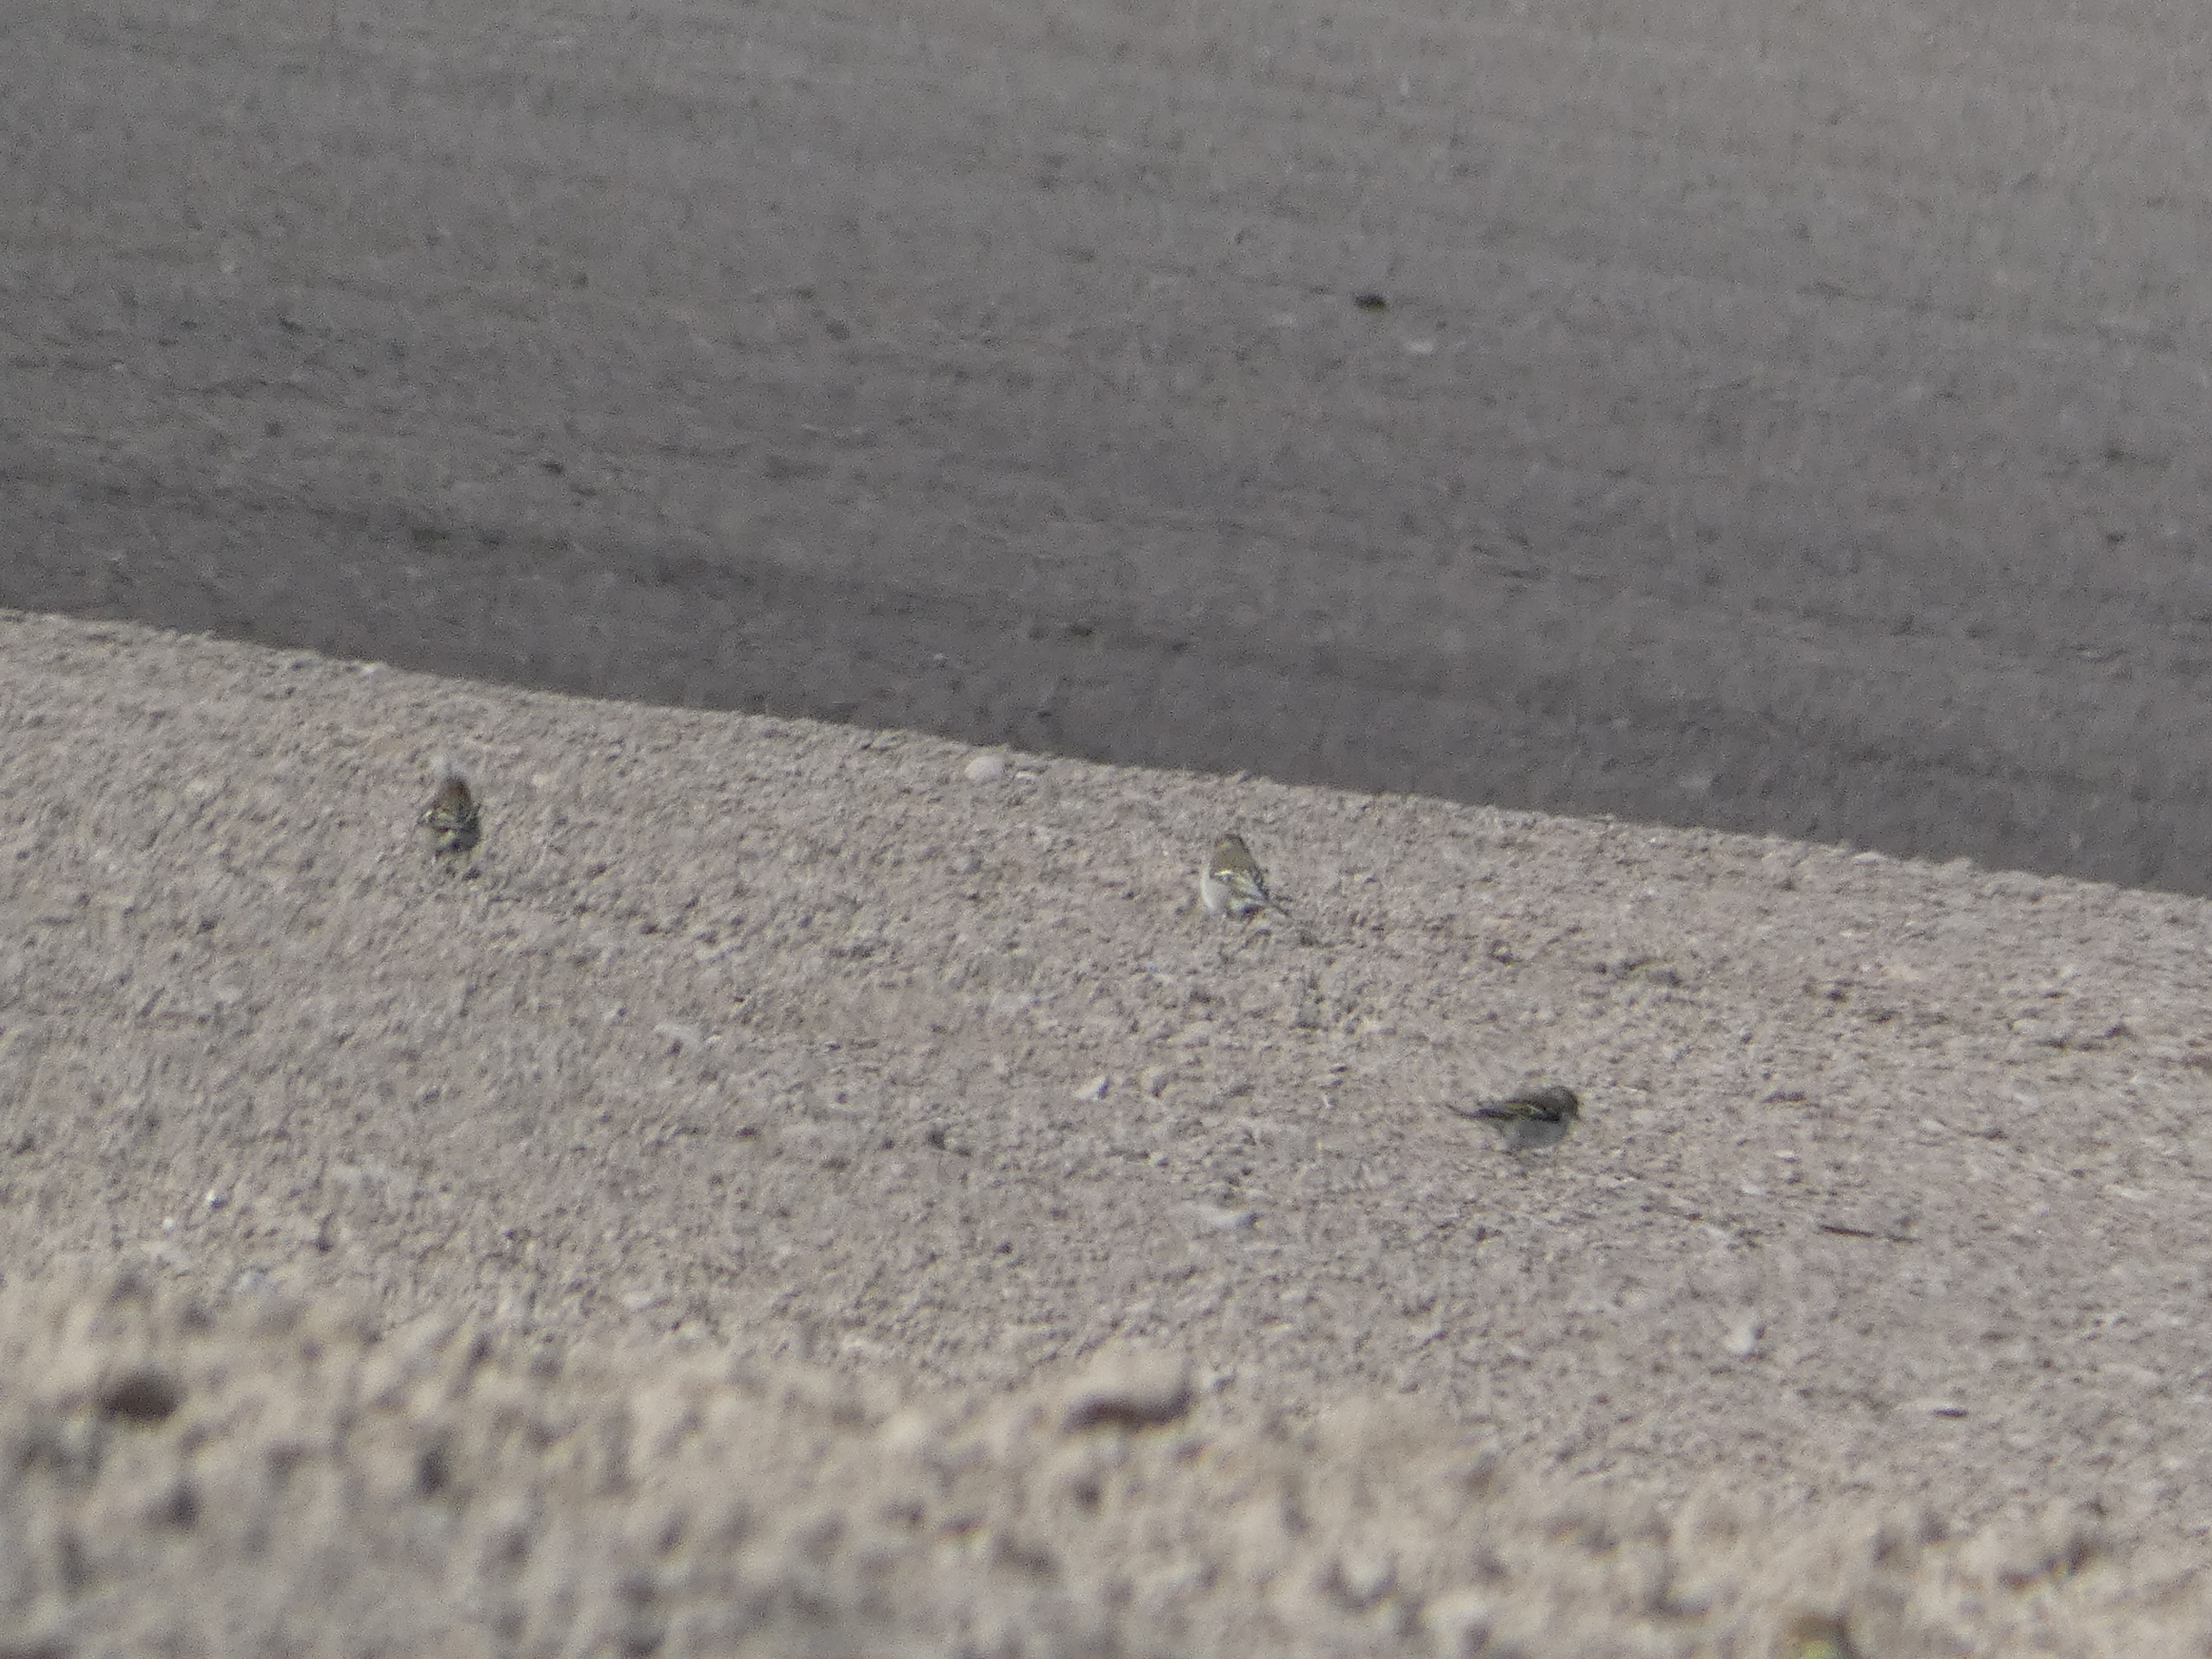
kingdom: Animalia
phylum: Chordata
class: Aves
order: Passeriformes
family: Fringillidae
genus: Fringilla
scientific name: Fringilla coelebs
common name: Bogfinke
